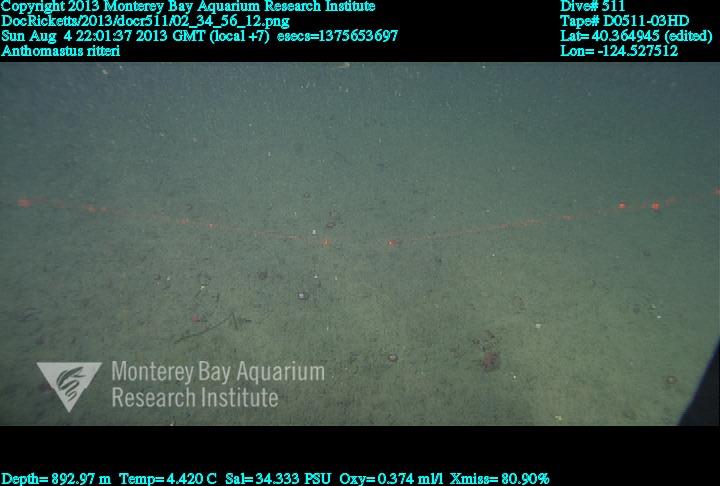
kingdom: Animalia
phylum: Cnidaria
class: Anthozoa
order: Scleralcyonacea
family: Coralliidae
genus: Heteropolypus
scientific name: Heteropolypus ritteri
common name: Ritter's soft coral
